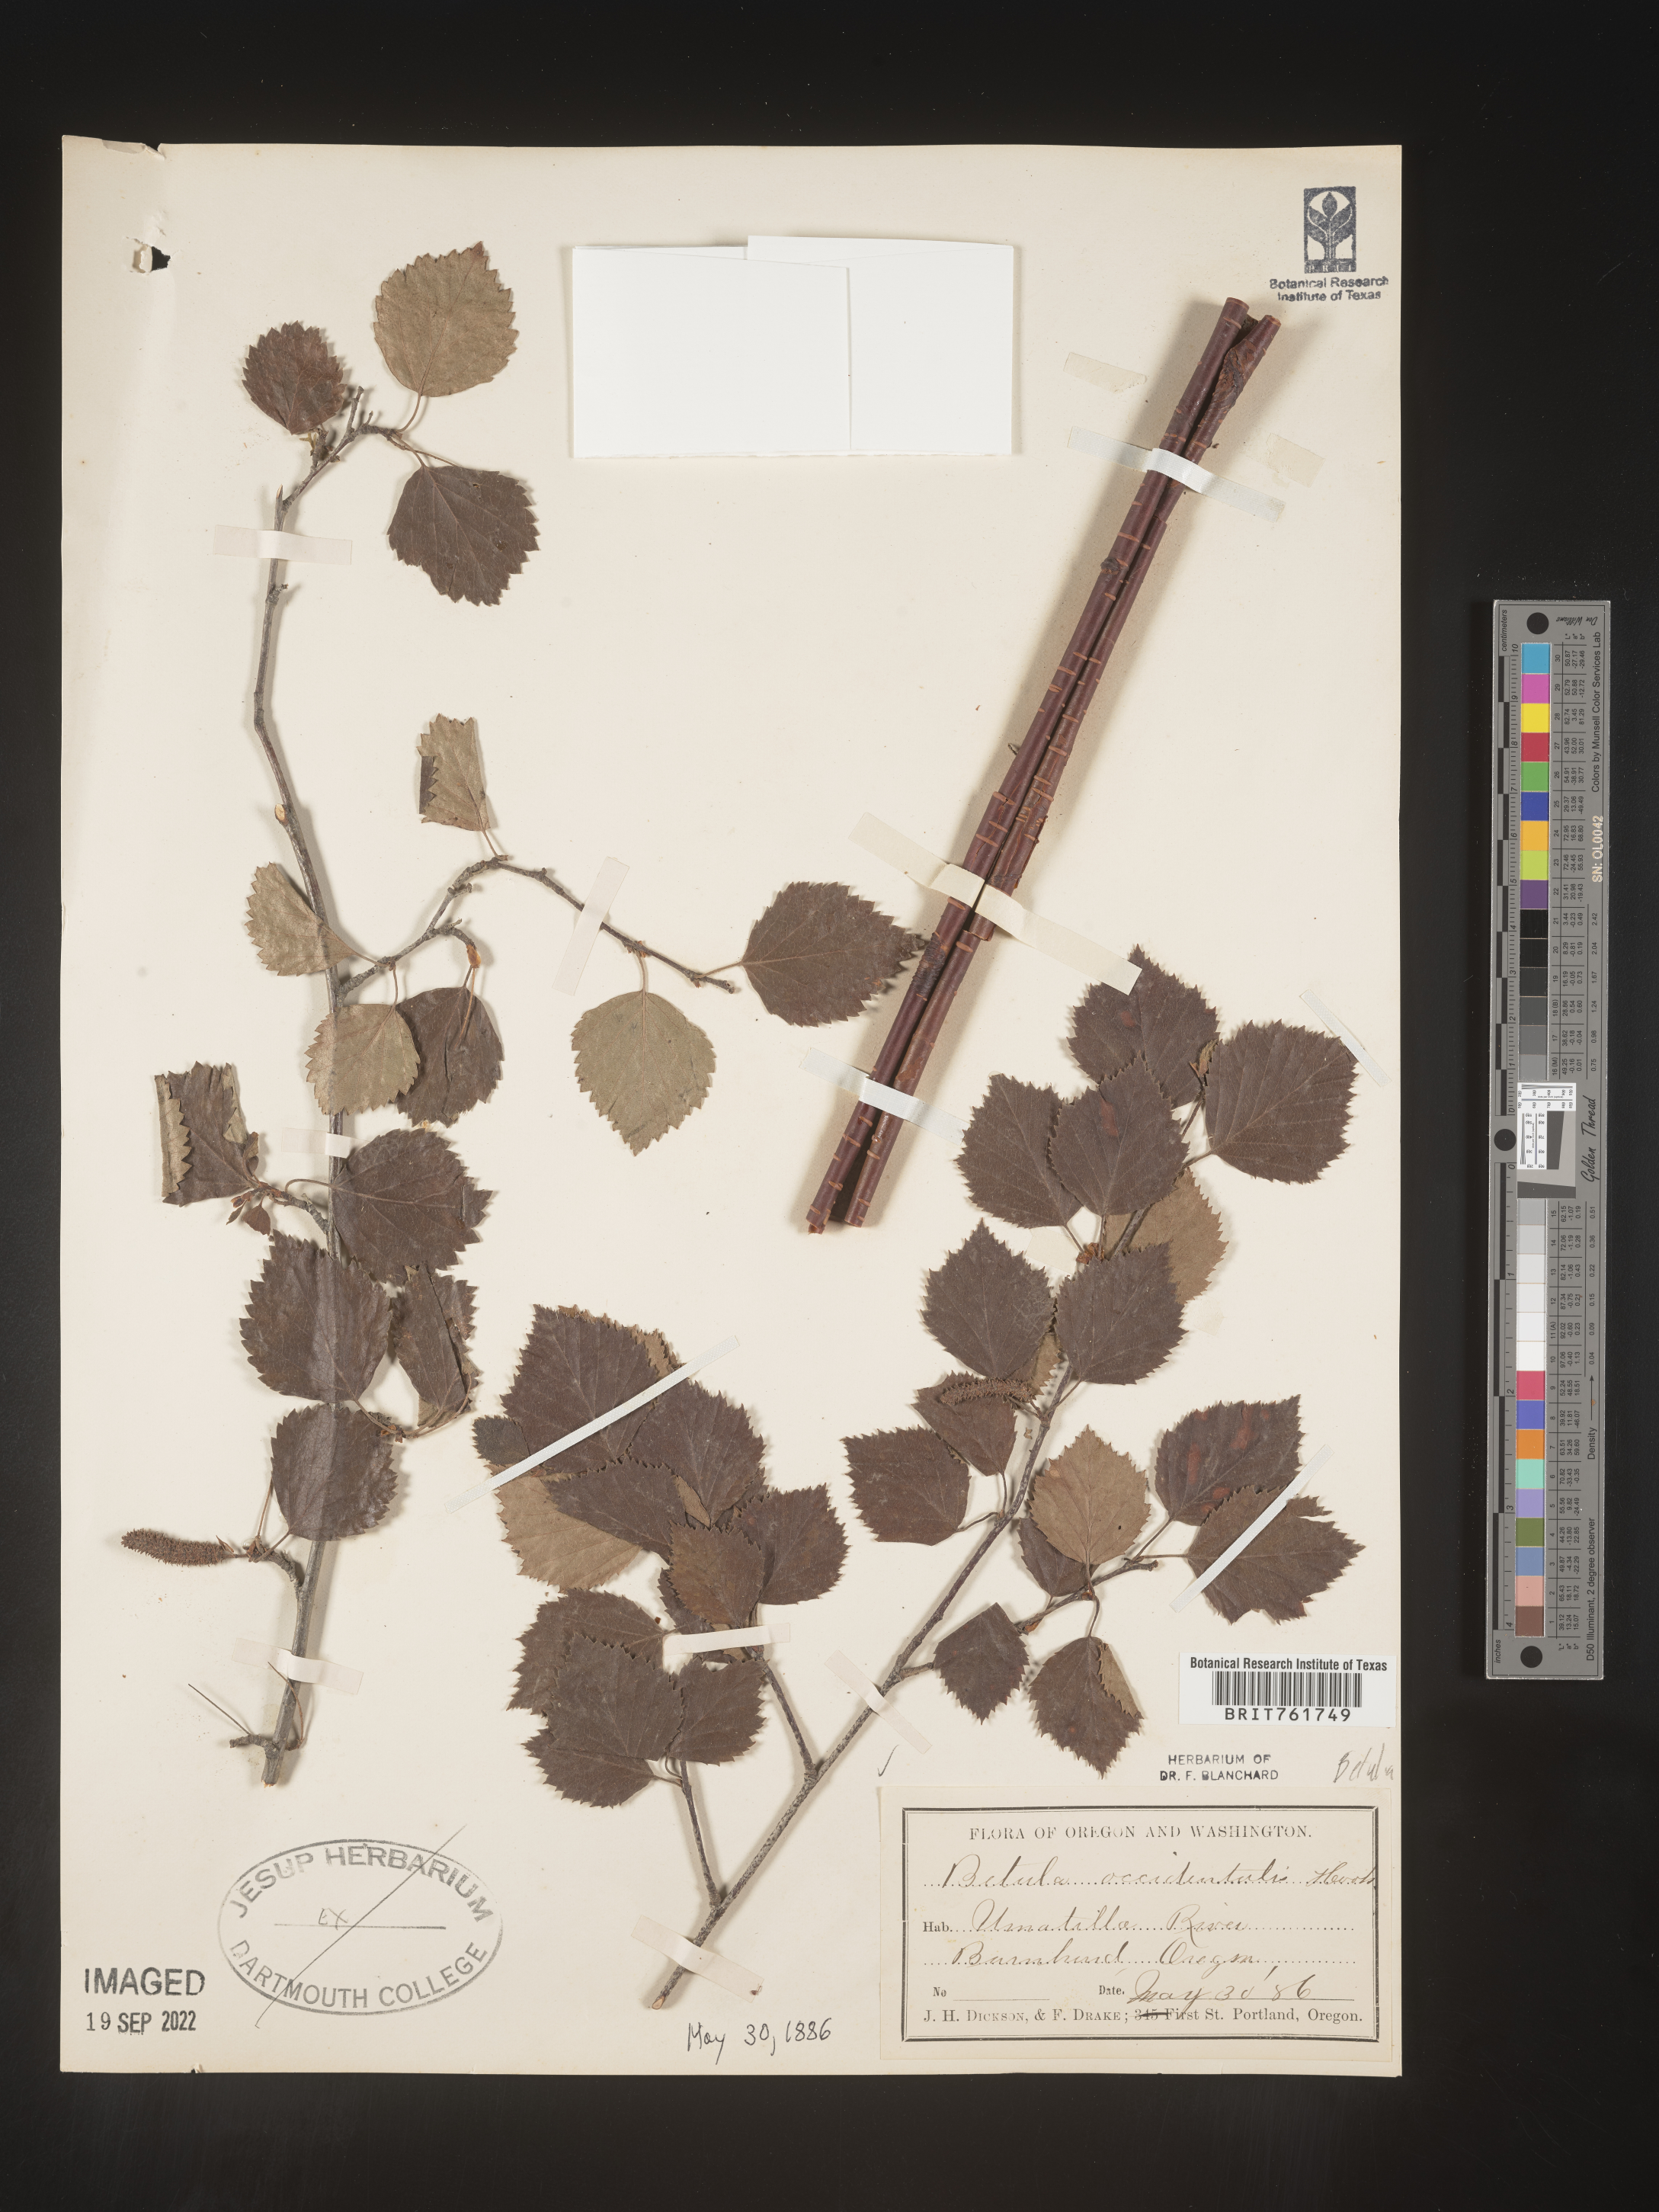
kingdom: Plantae
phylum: Tracheophyta
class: Magnoliopsida
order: Fagales
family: Betulaceae
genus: Betula
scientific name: Betula occidentalis
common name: River birch
